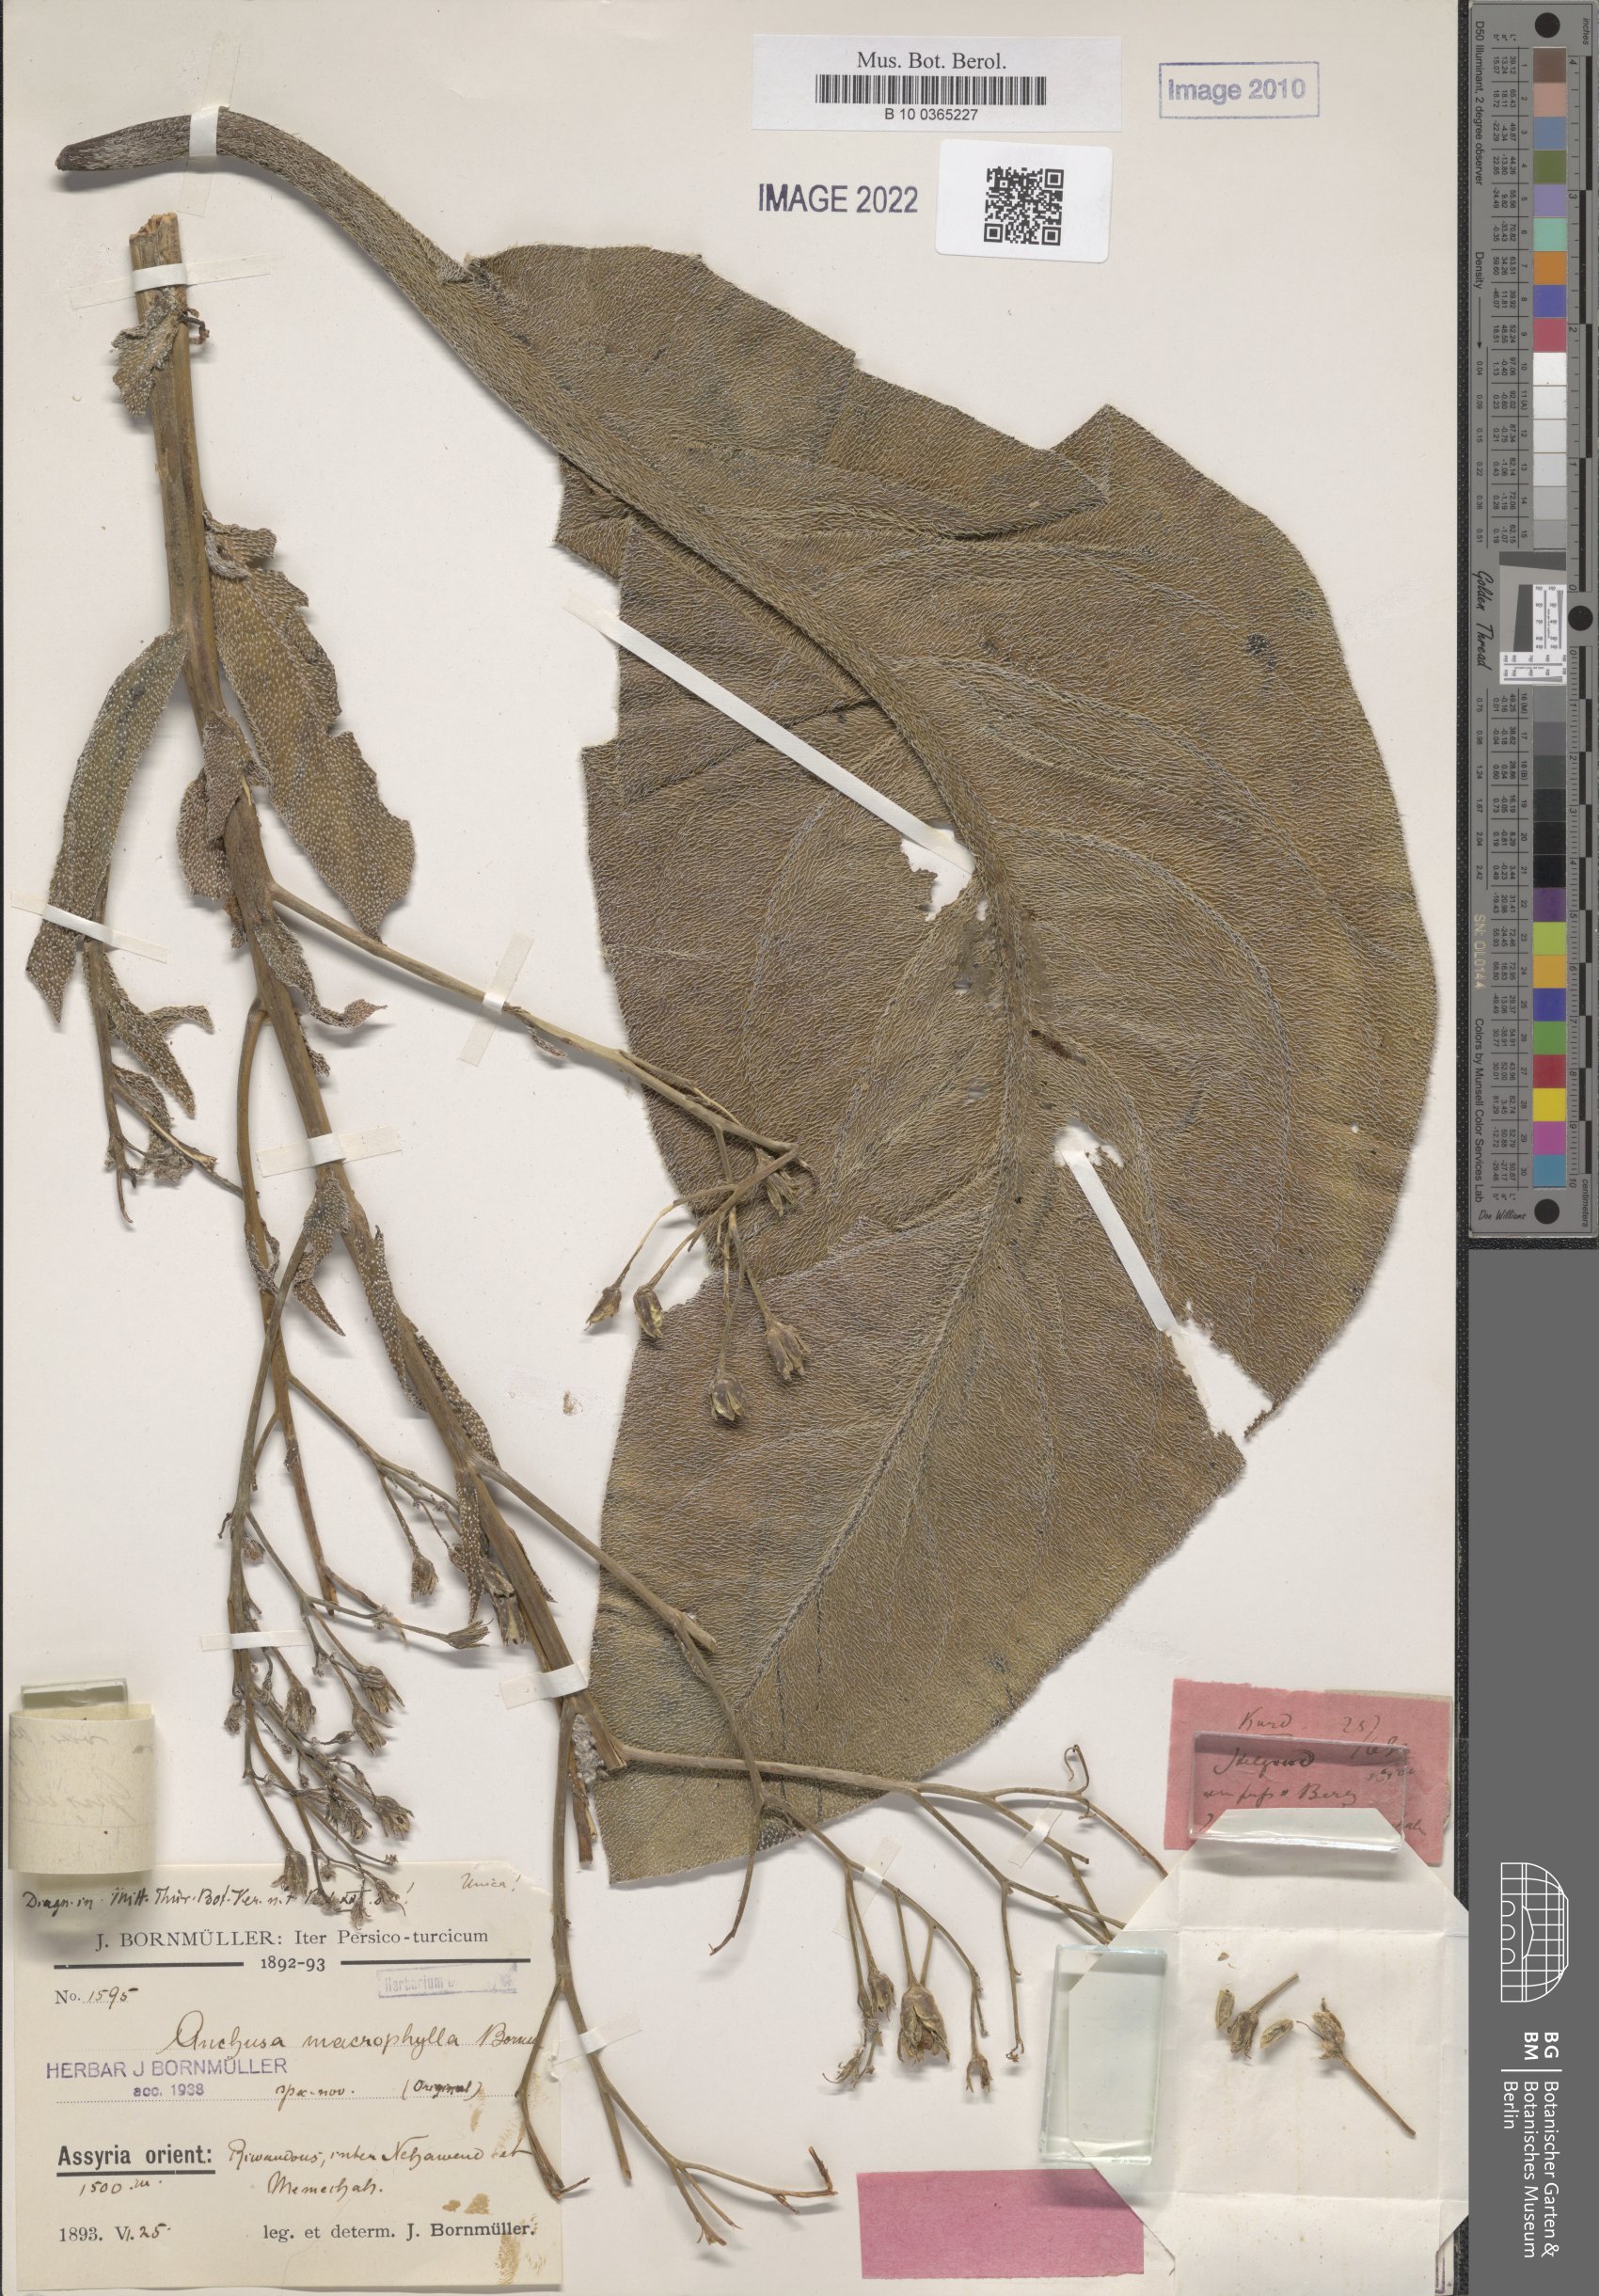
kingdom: Plantae
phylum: Tracheophyta
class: Magnoliopsida
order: Boraginales
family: Boraginaceae
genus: Anchusa
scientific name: Anchusa strigosa
